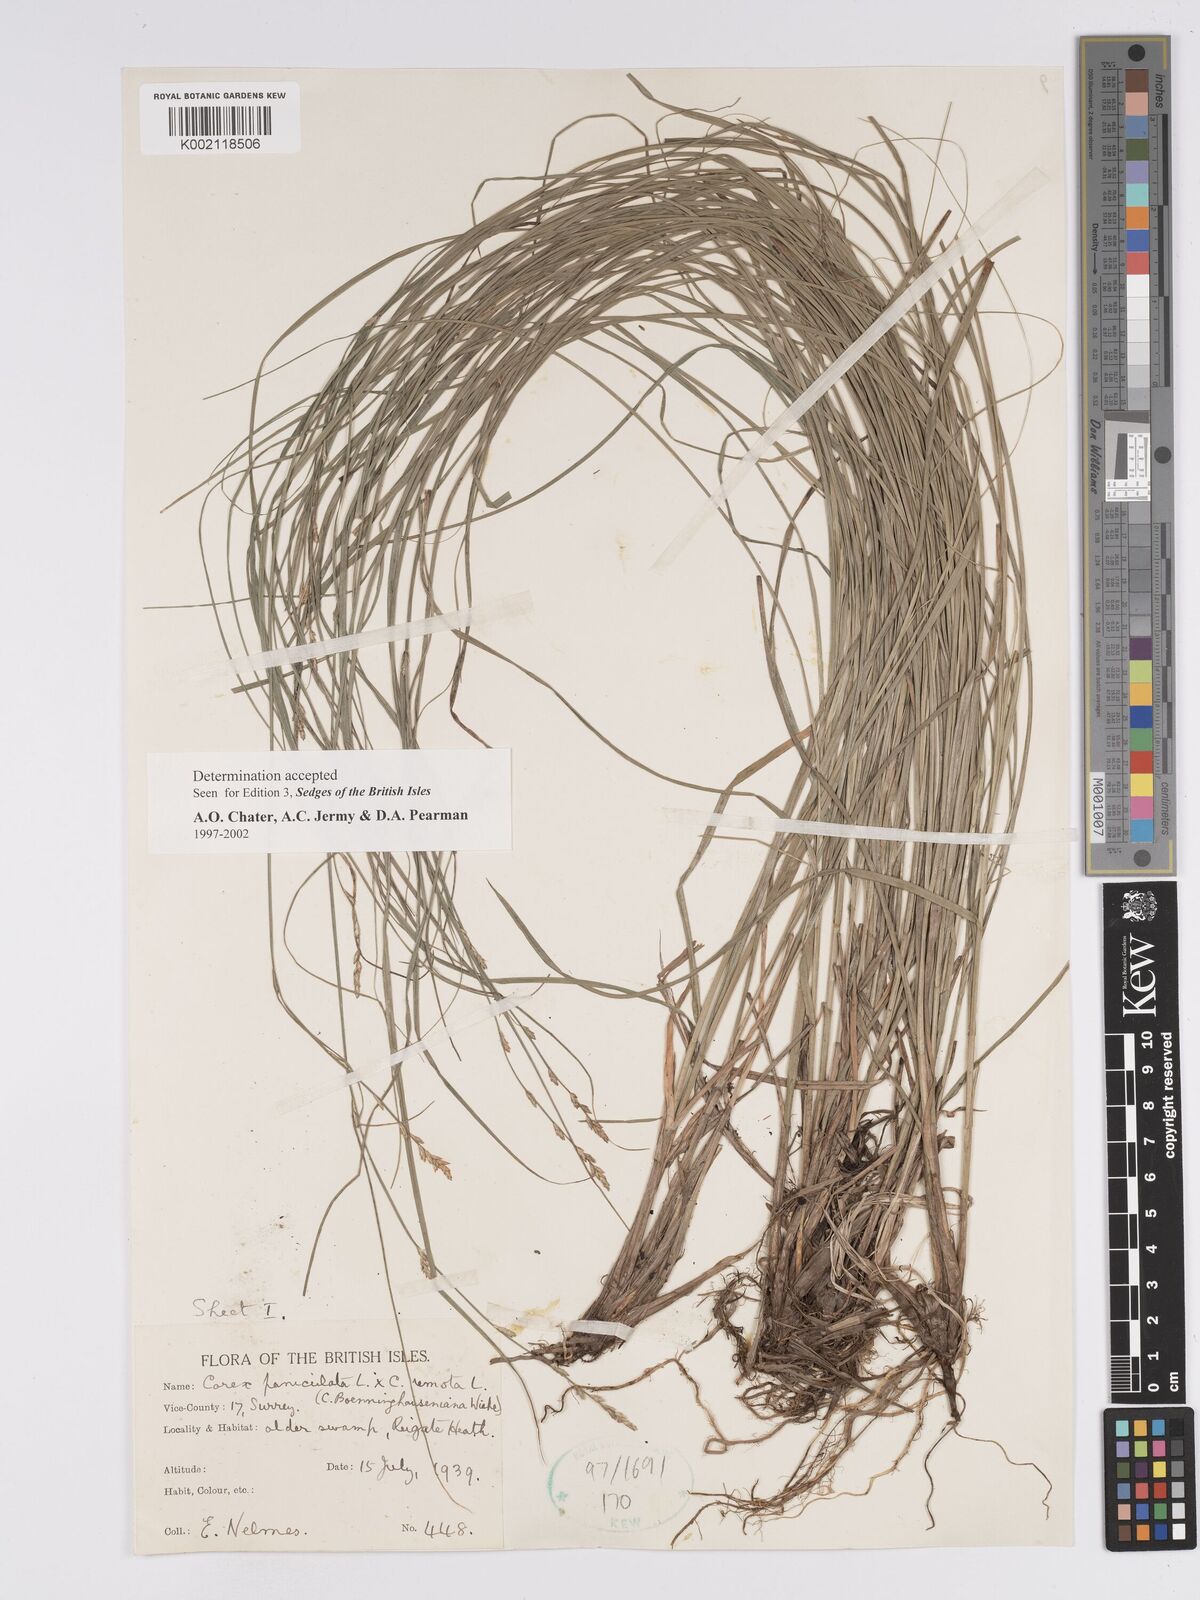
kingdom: Plantae
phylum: Tracheophyta
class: Liliopsida
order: Poales
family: Cyperaceae
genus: Carex
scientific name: Carex boenninghausiana
